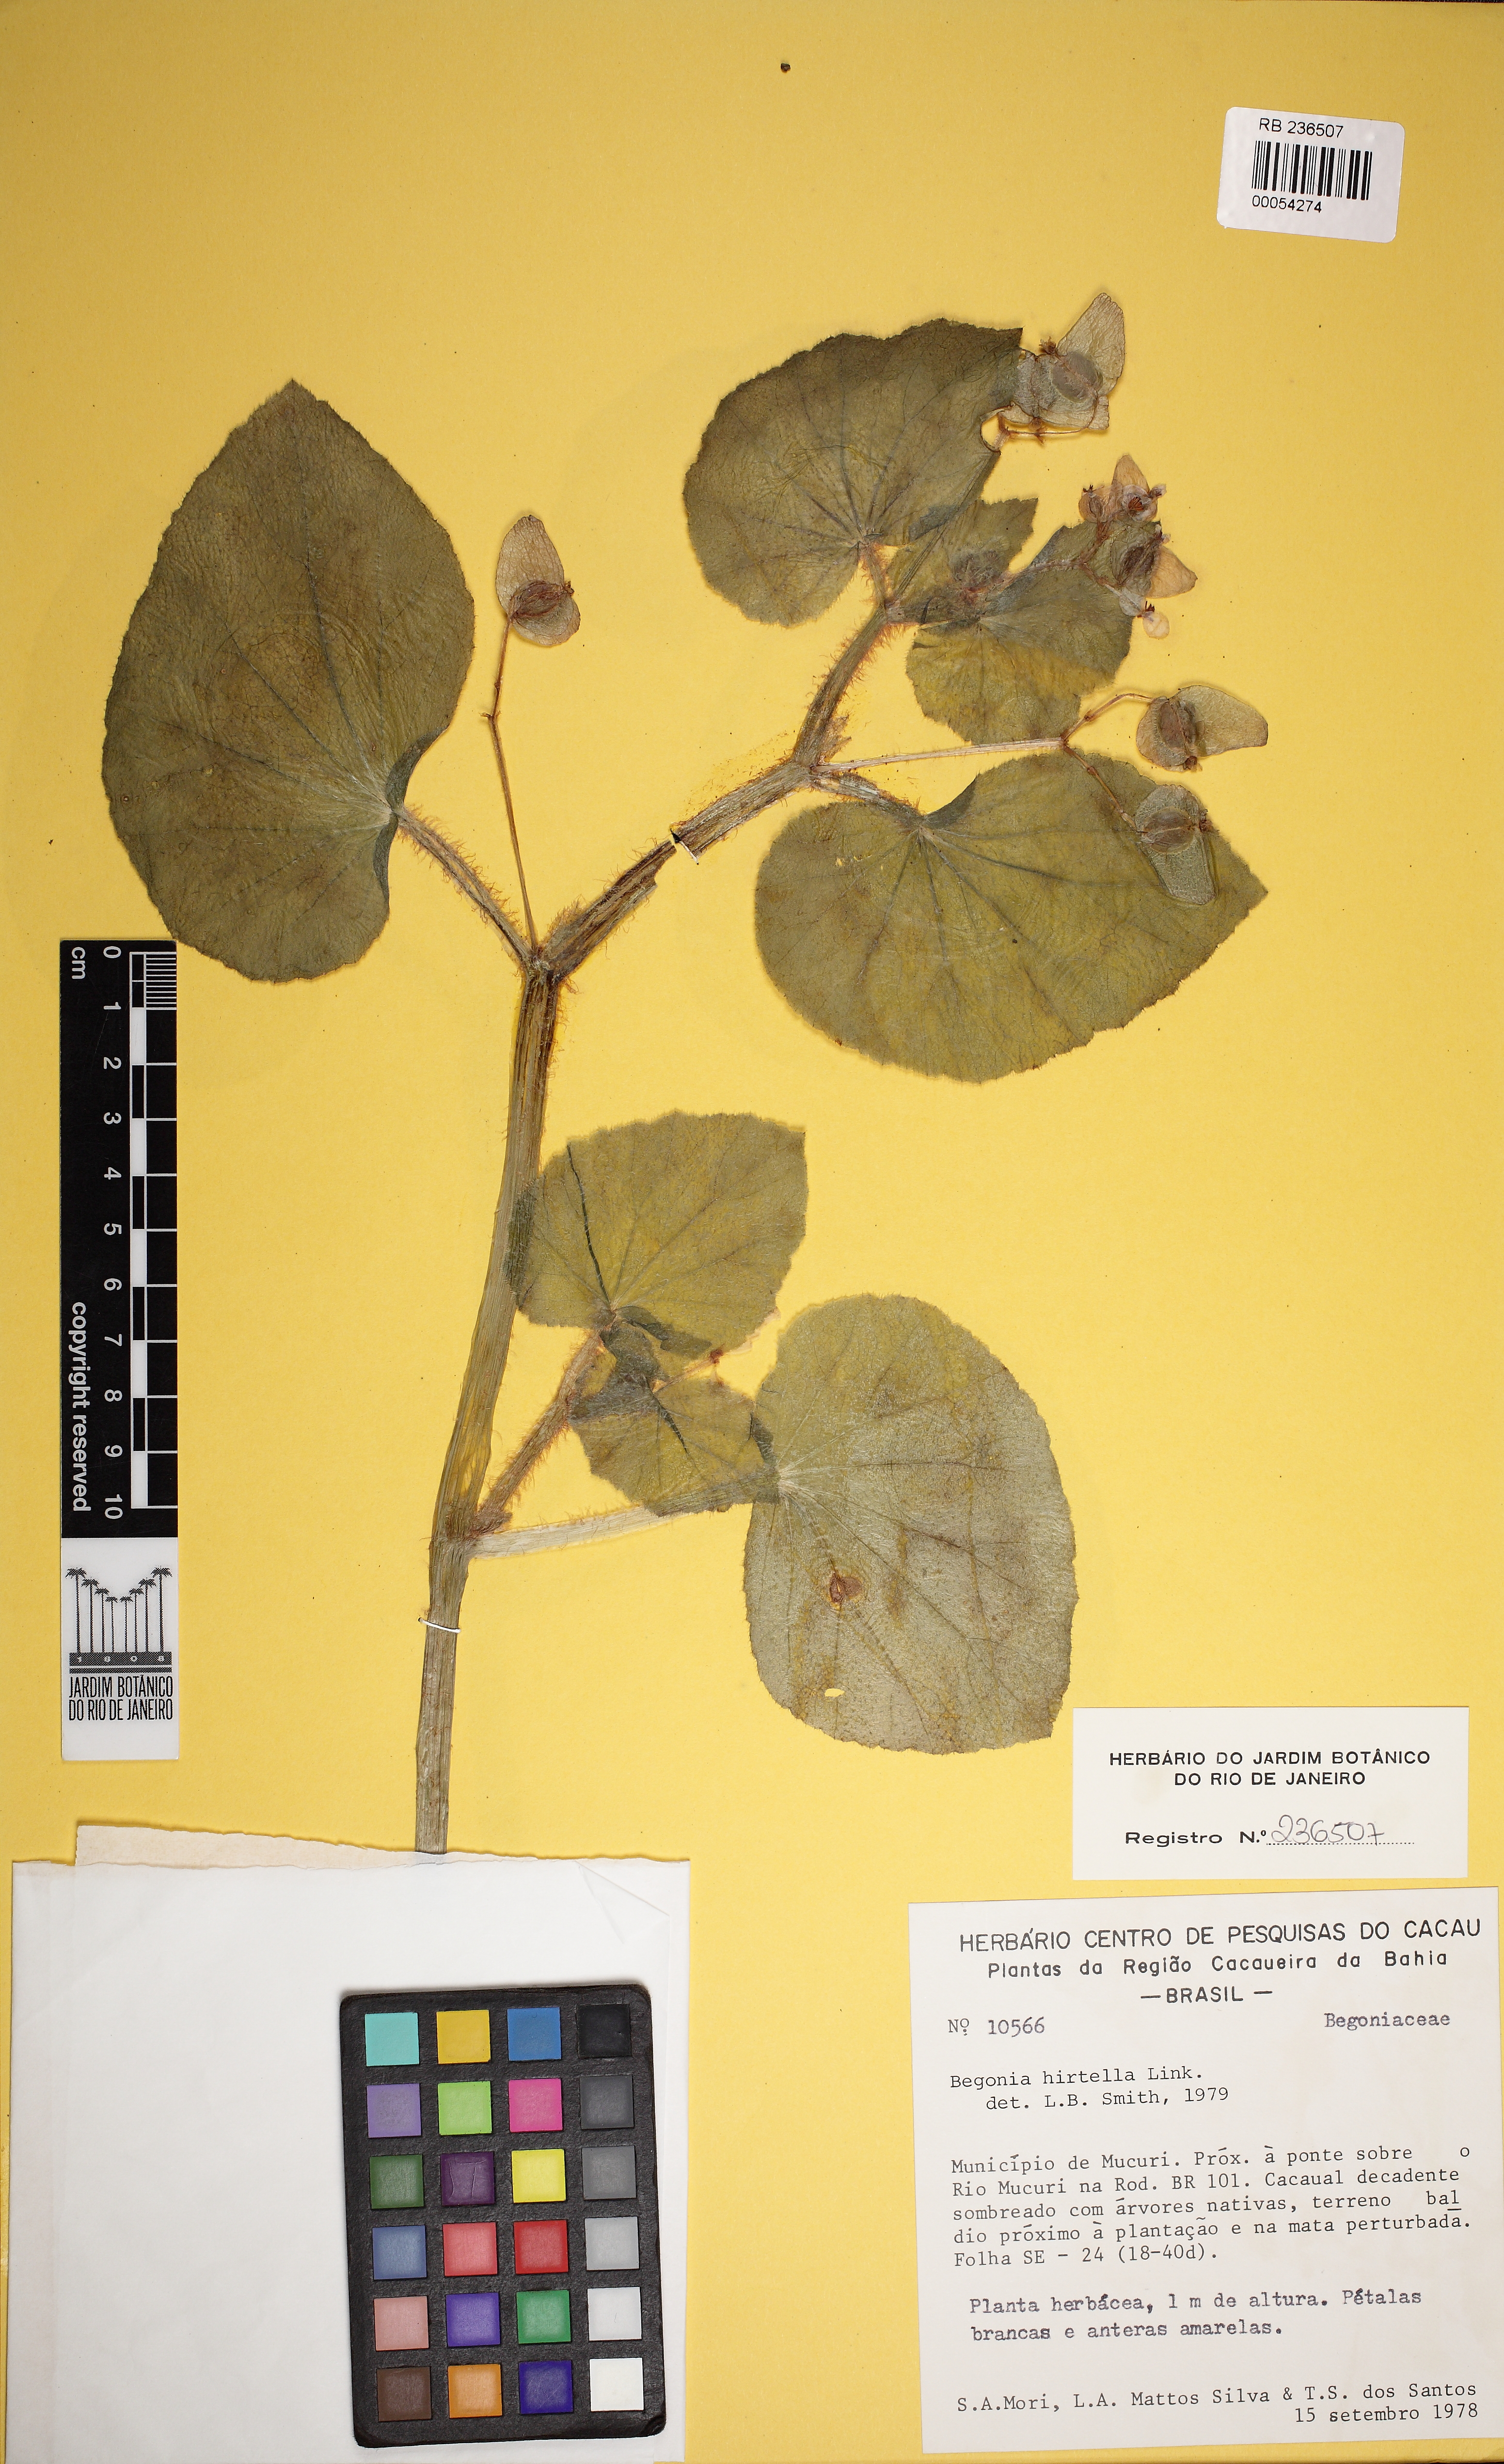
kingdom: Plantae
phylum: Tracheophyta
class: Magnoliopsida
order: Cucurbitales
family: Begoniaceae
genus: Begonia
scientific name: Begonia hirtella
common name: Brazilian begonia
